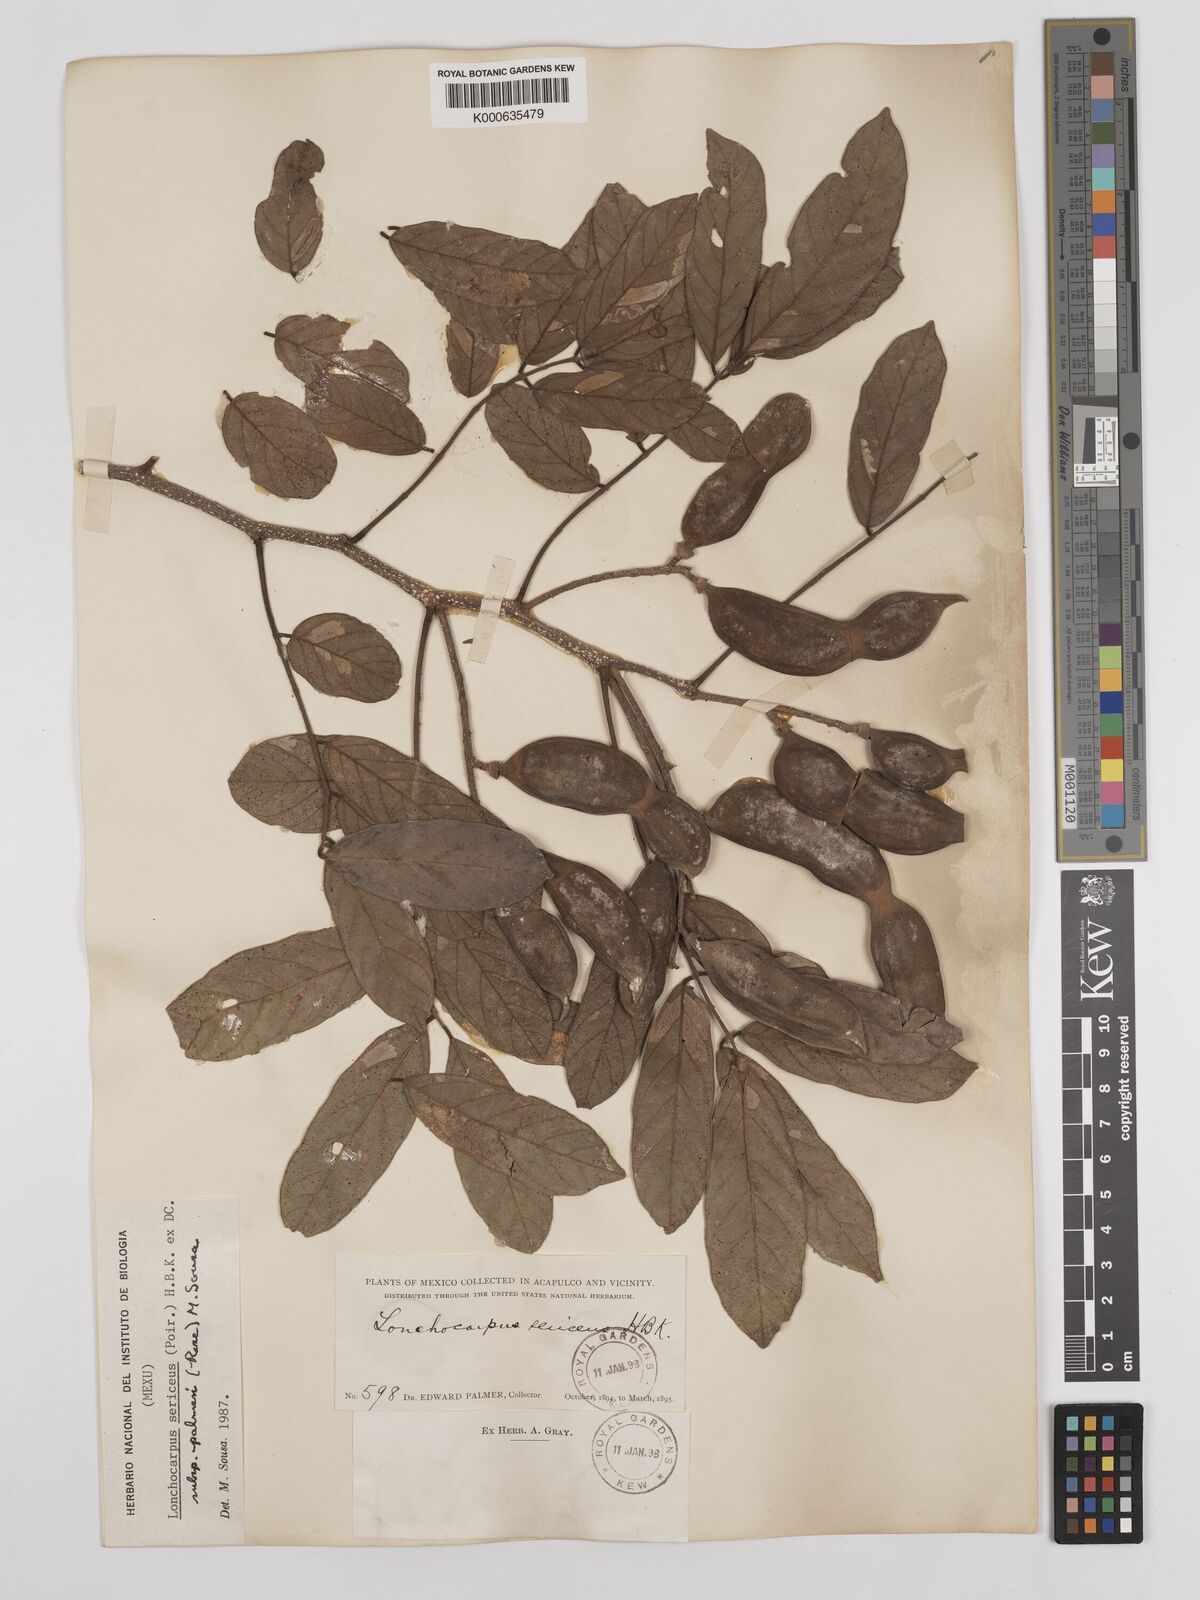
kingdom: Plantae
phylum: Tracheophyta
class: Magnoliopsida
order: Fabales
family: Fabaceae
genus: Lonchocarpus
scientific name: Lonchocarpus palmeri
